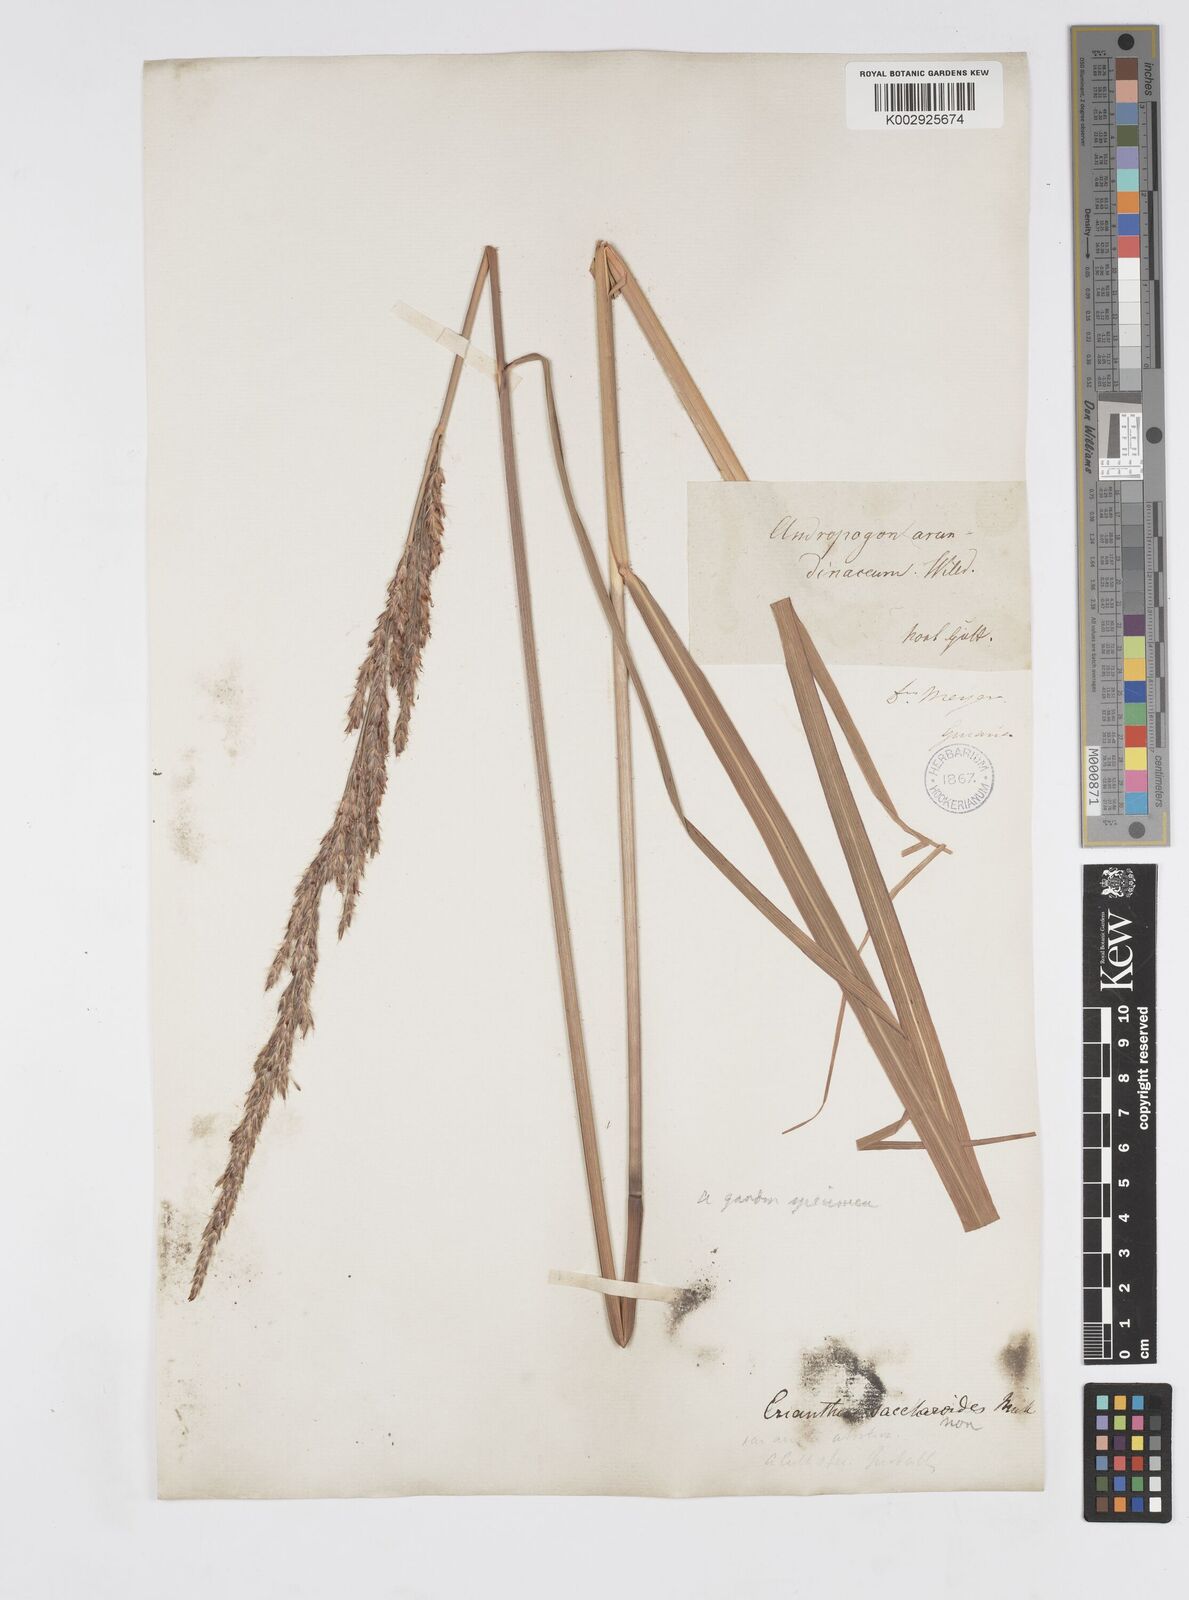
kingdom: Plantae
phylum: Tracheophyta
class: Liliopsida
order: Poales
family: Poaceae
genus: Tripidium
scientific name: Tripidium strictum
